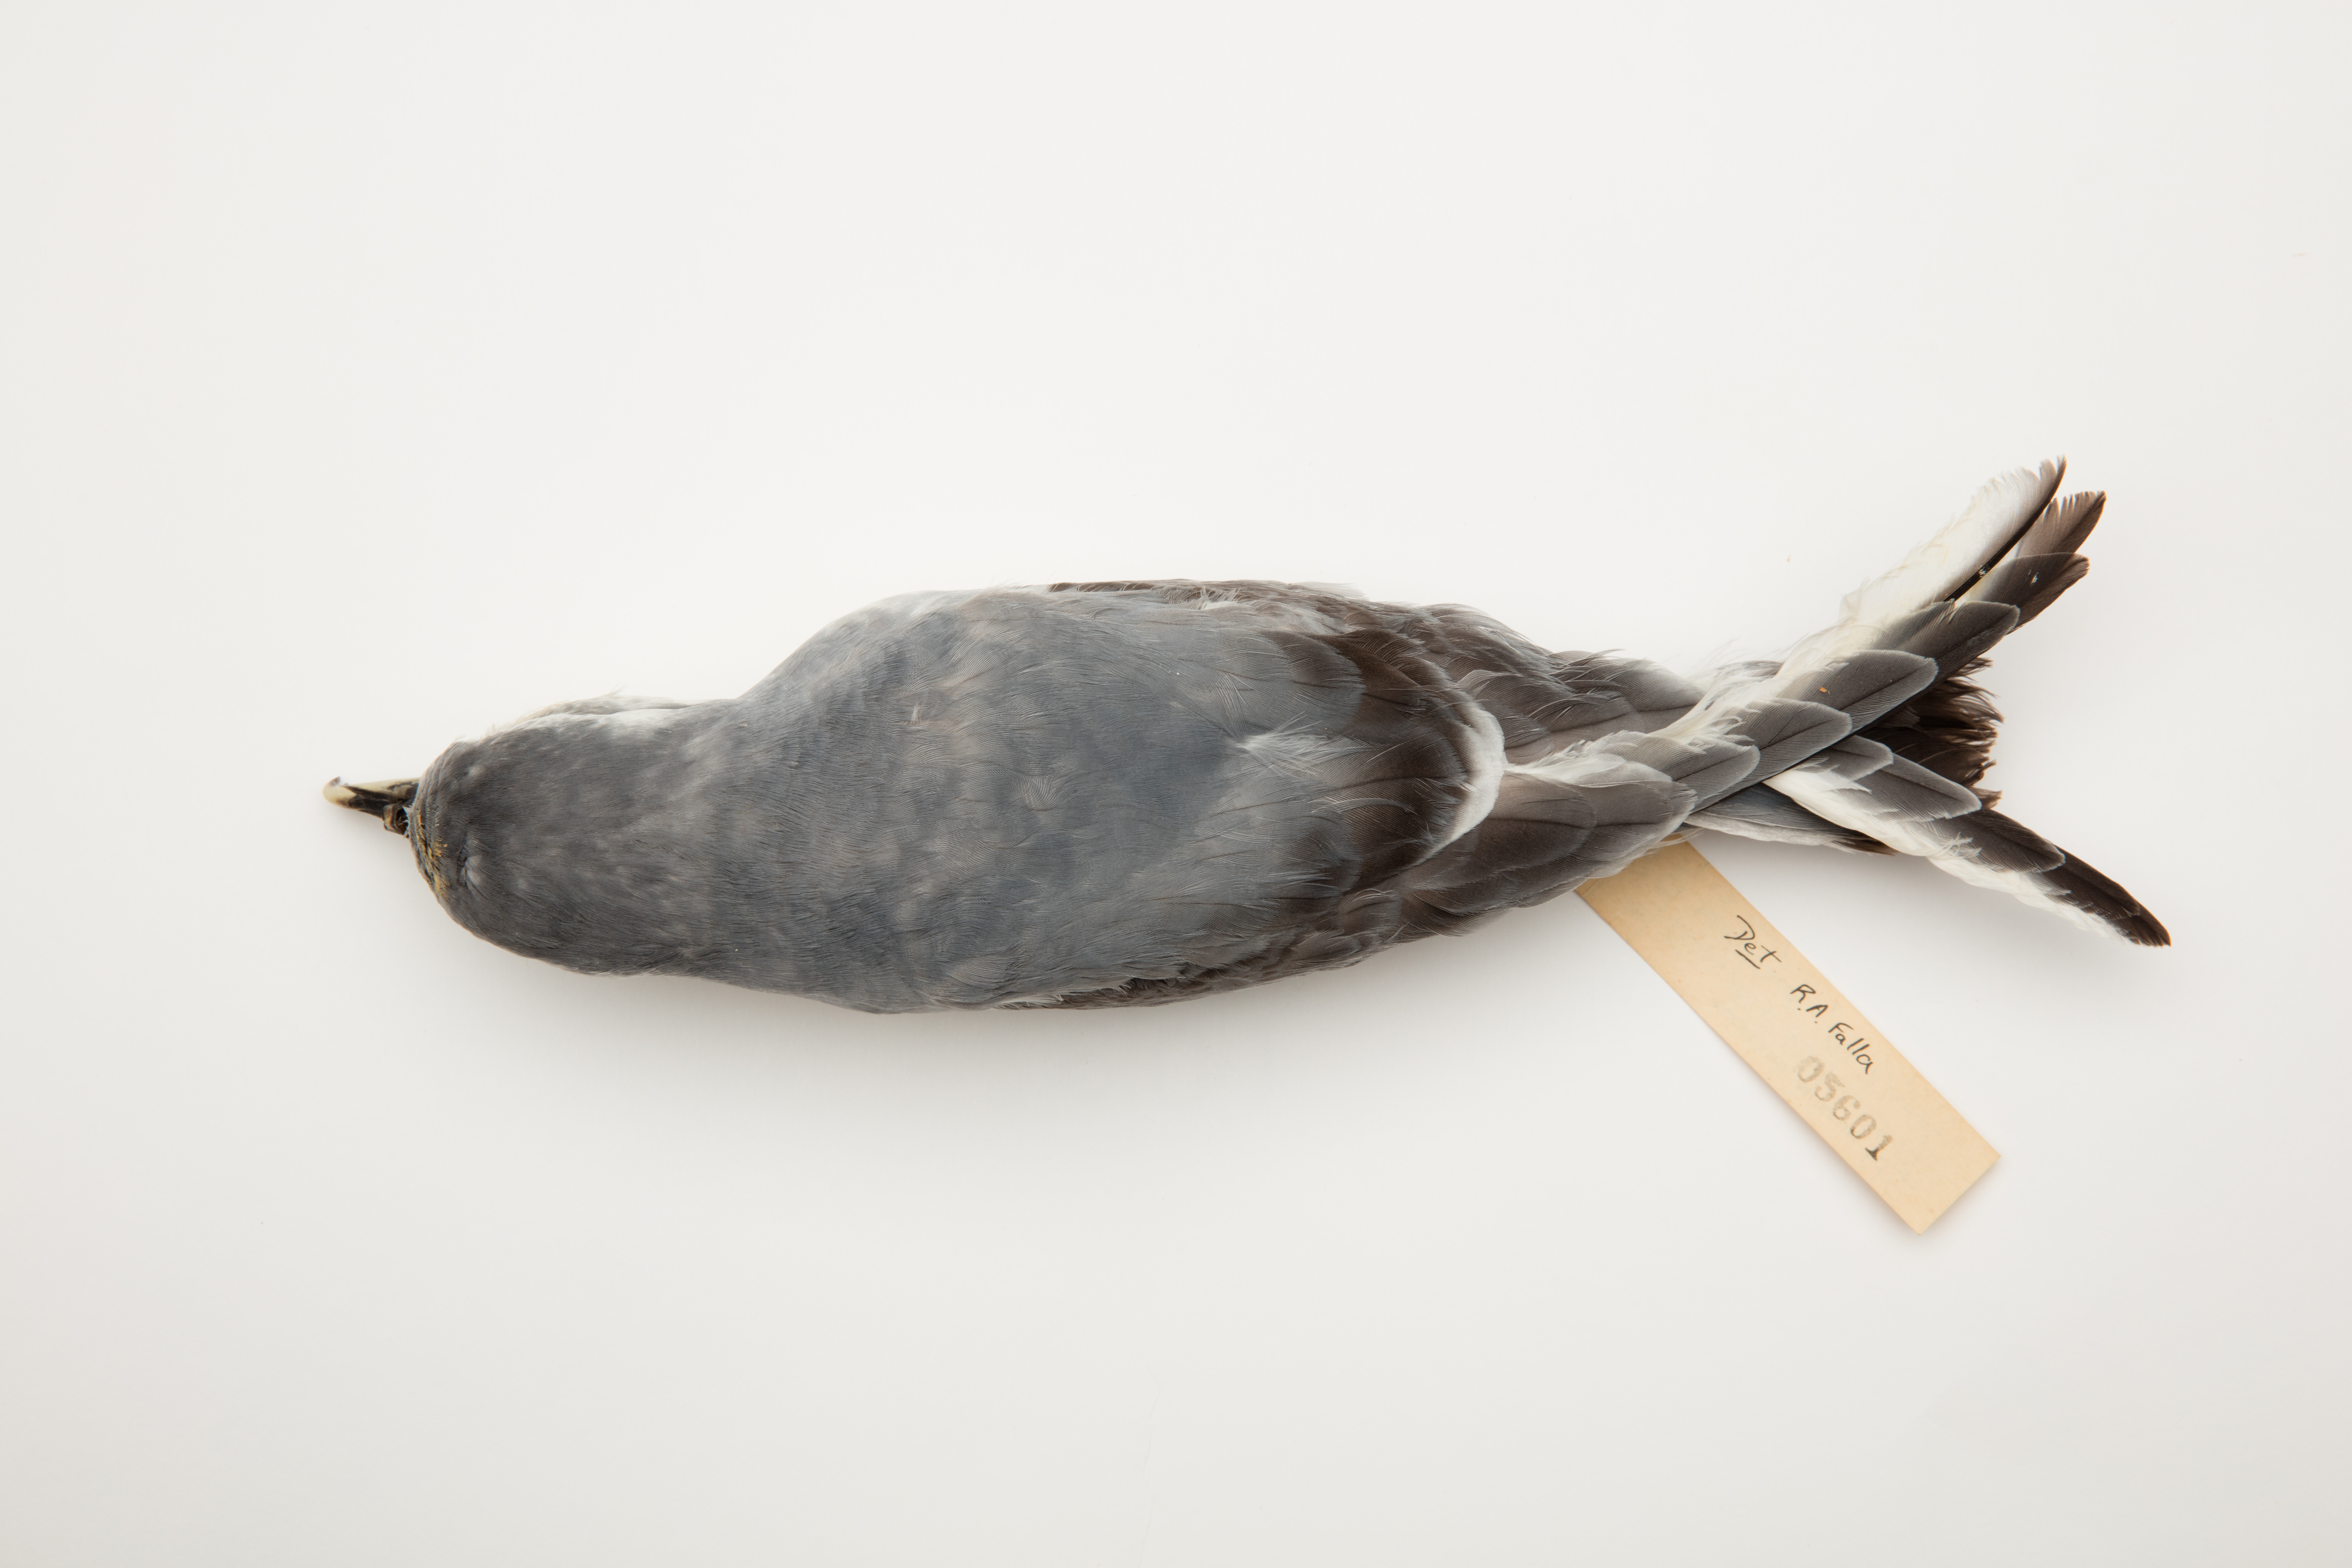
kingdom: Animalia
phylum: Chordata
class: Aves
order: Procellariiformes
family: Procellariidae
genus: Pachyptila
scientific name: Pachyptila belcheri
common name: Slender-billed prion
